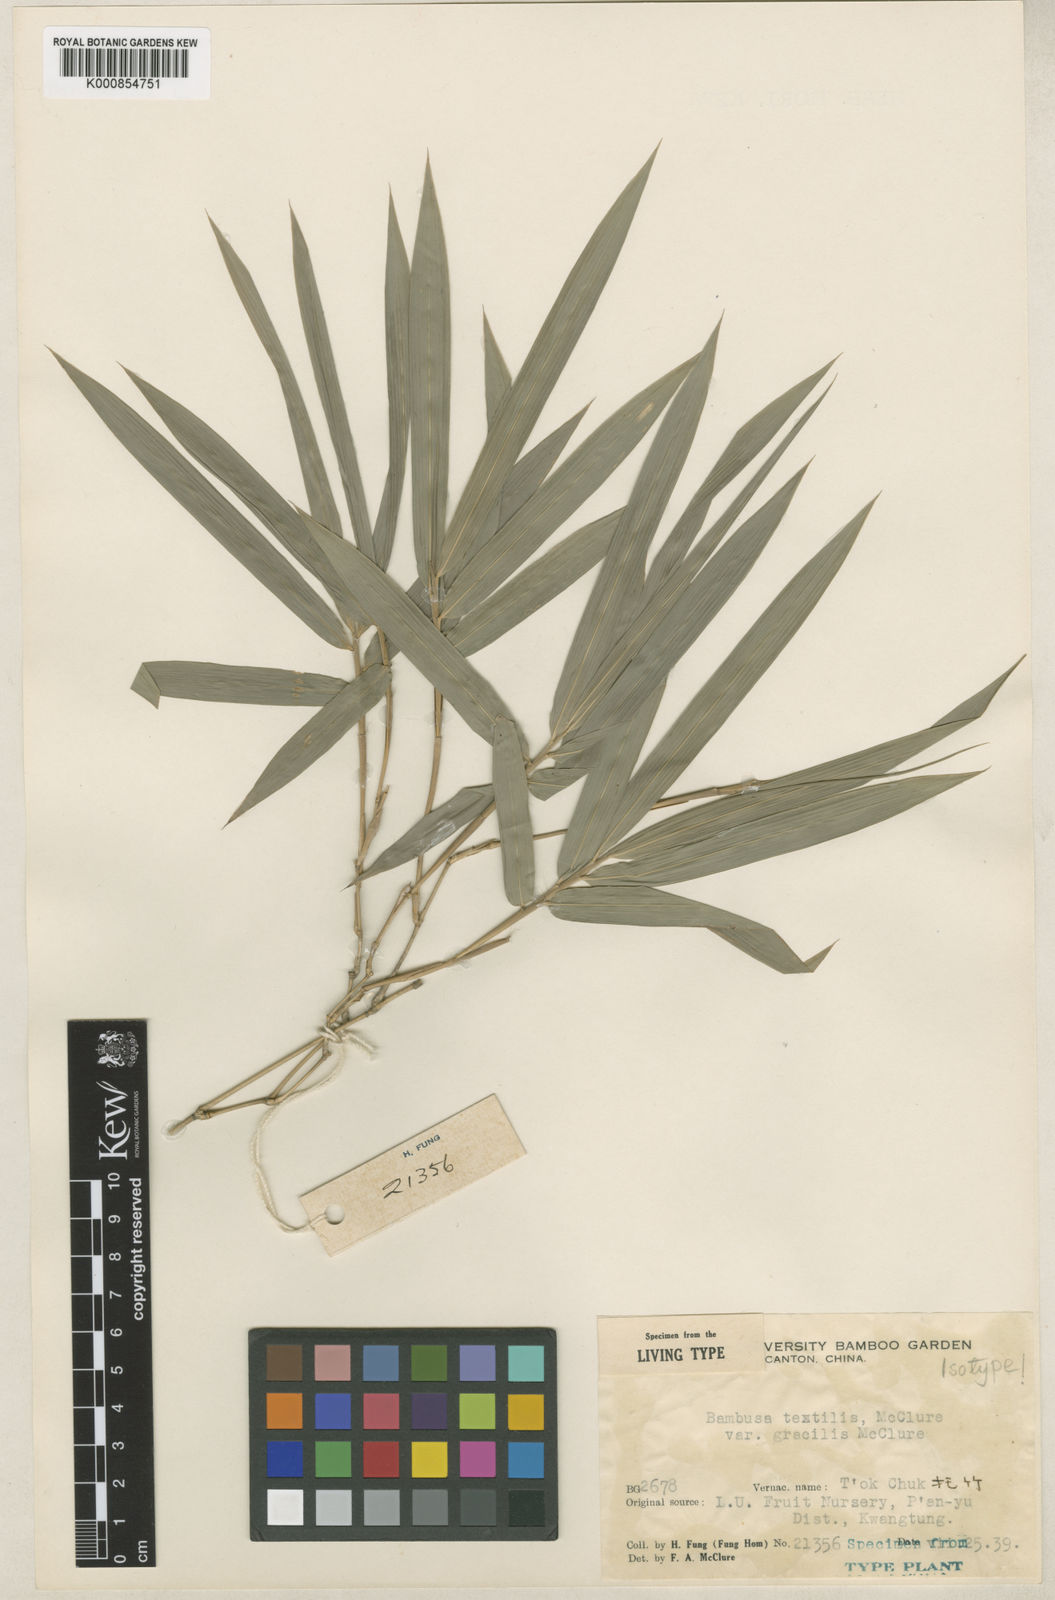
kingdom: Plantae
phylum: Tracheophyta
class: Liliopsida
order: Poales
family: Poaceae
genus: Bambusa
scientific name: Bambusa textilis
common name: Weaver's bamboo
